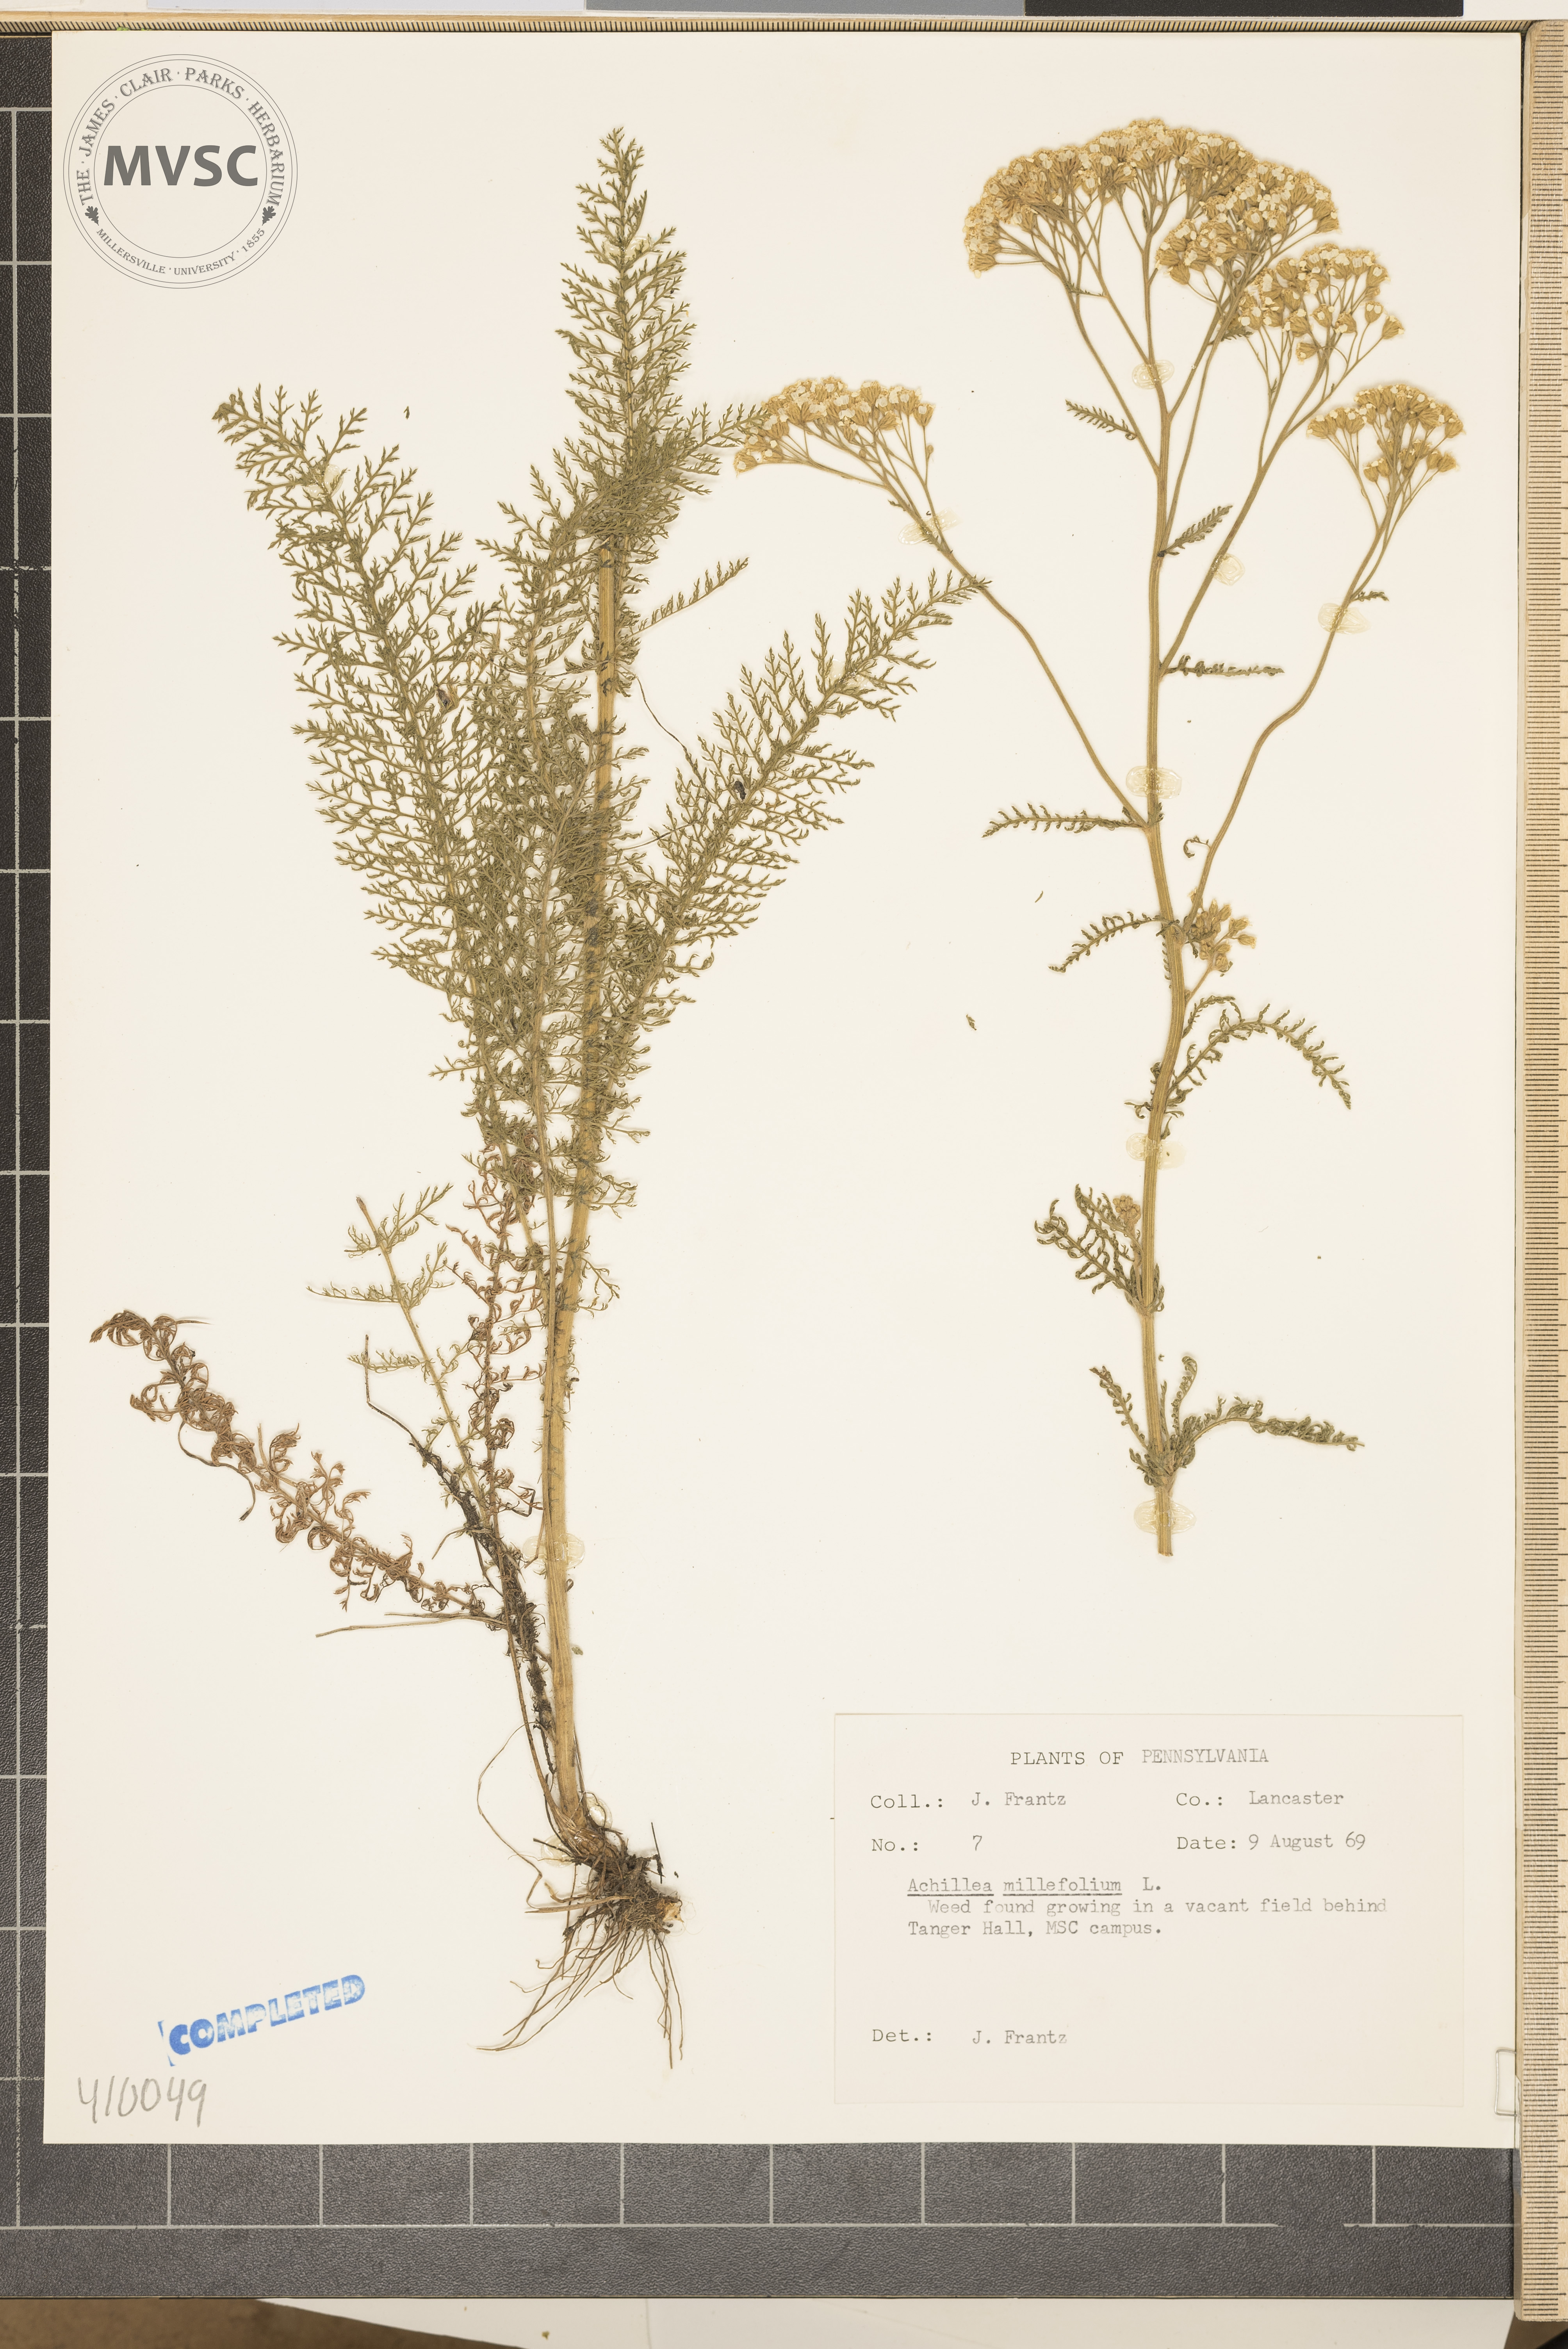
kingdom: Plantae
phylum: Tracheophyta
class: Magnoliopsida
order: Asterales
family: Asteraceae
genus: Achillea
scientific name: Achillea millefolium
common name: Yarrow
